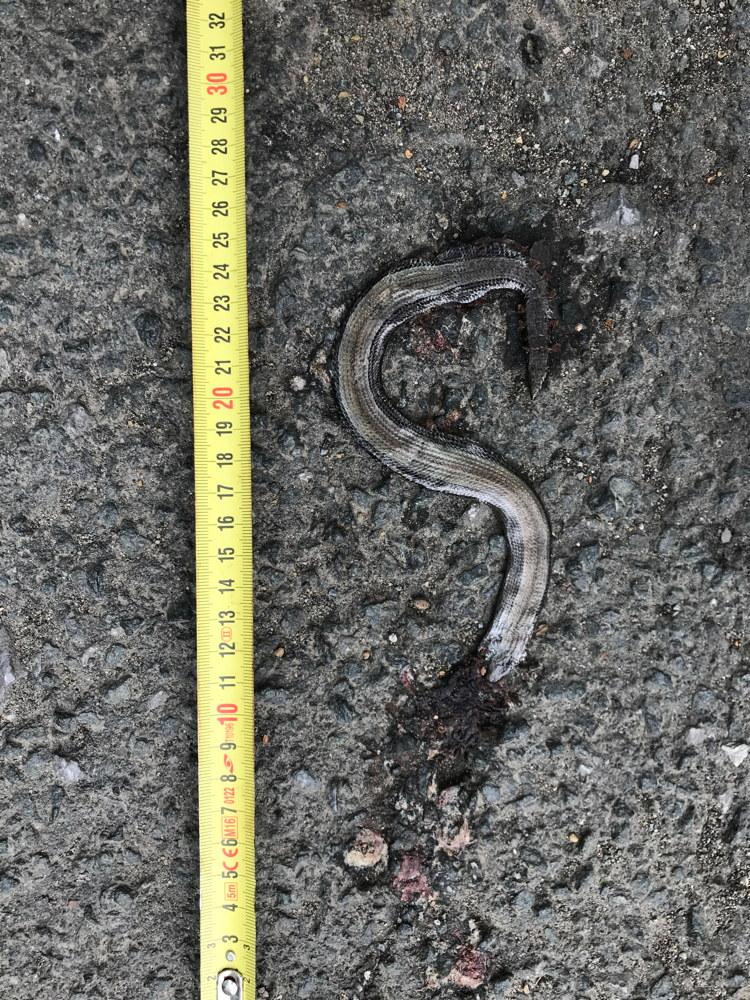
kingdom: Animalia
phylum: Chordata
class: Squamata
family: Anguidae
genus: Anguis
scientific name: Anguis fragilis
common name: Slow worm
